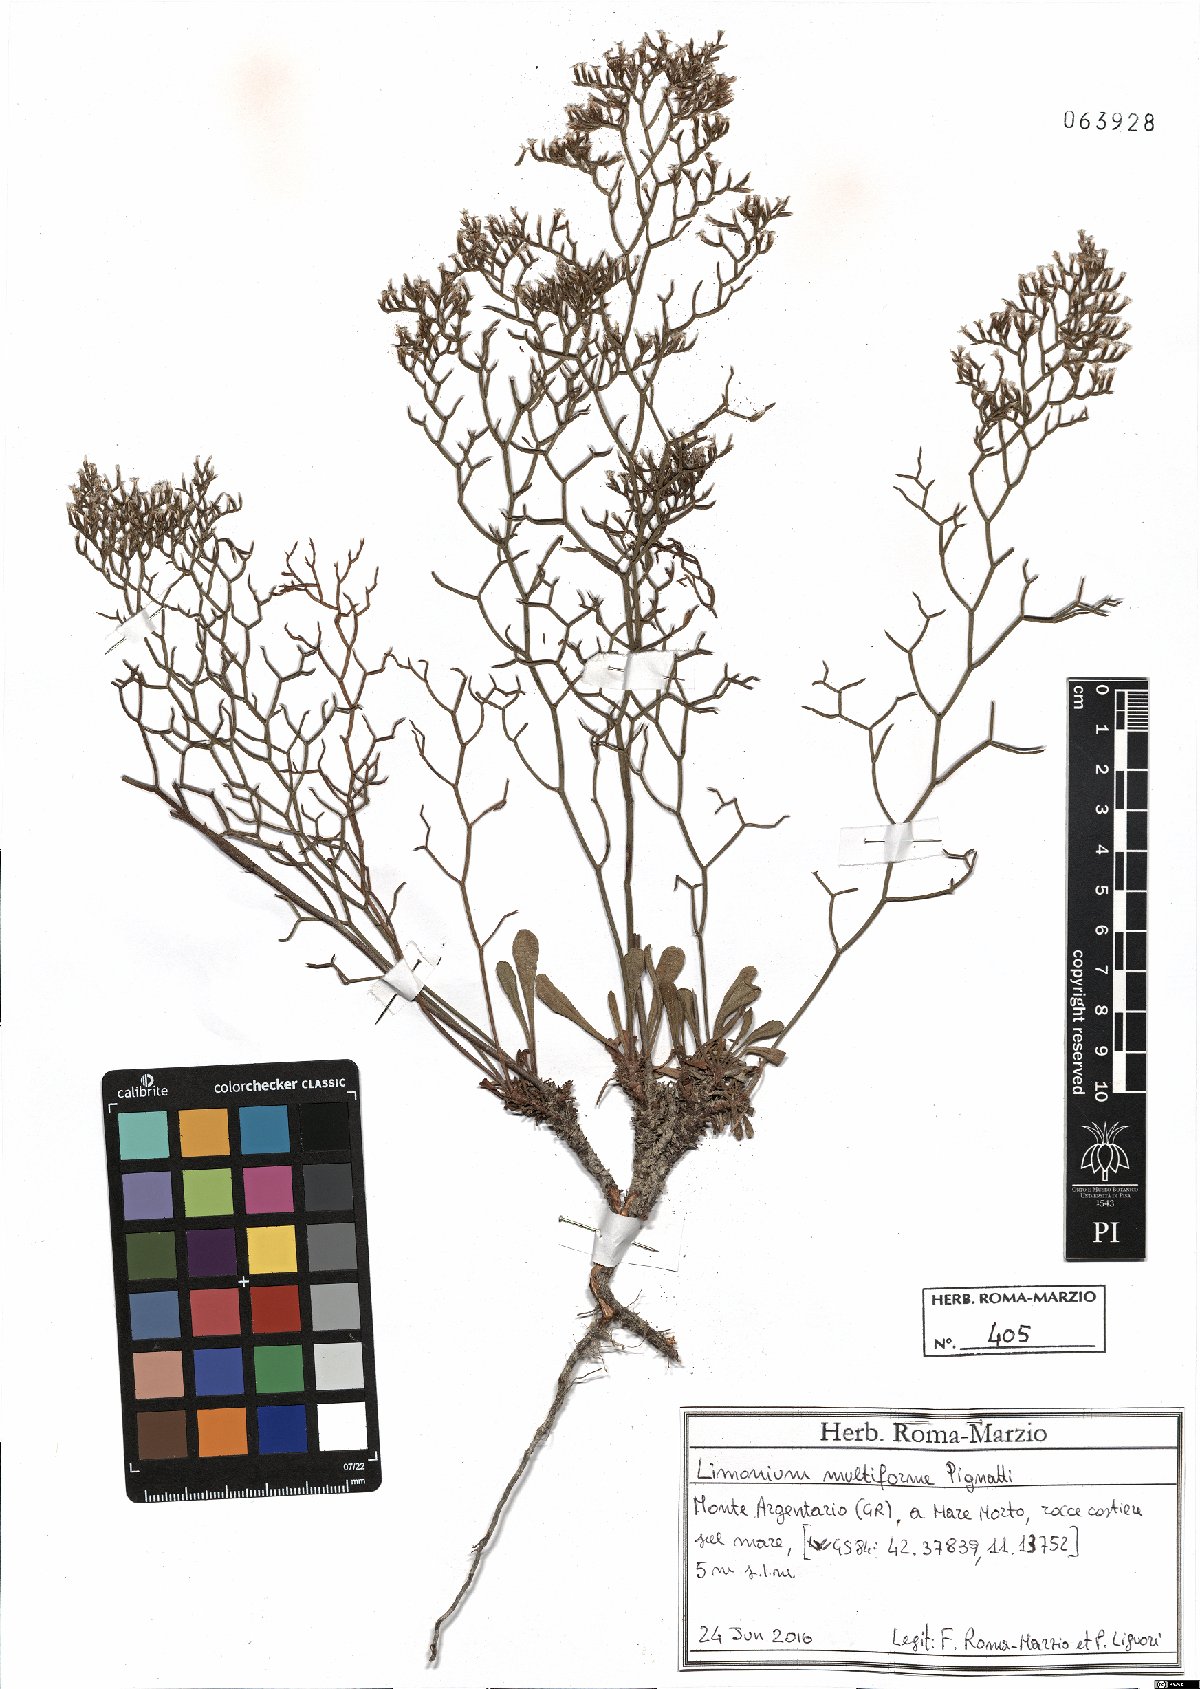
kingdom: Plantae
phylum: Tracheophyta
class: Magnoliopsida
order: Caryophyllales
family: Plumbaginaceae
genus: Limonium
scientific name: Limonium multiforme
